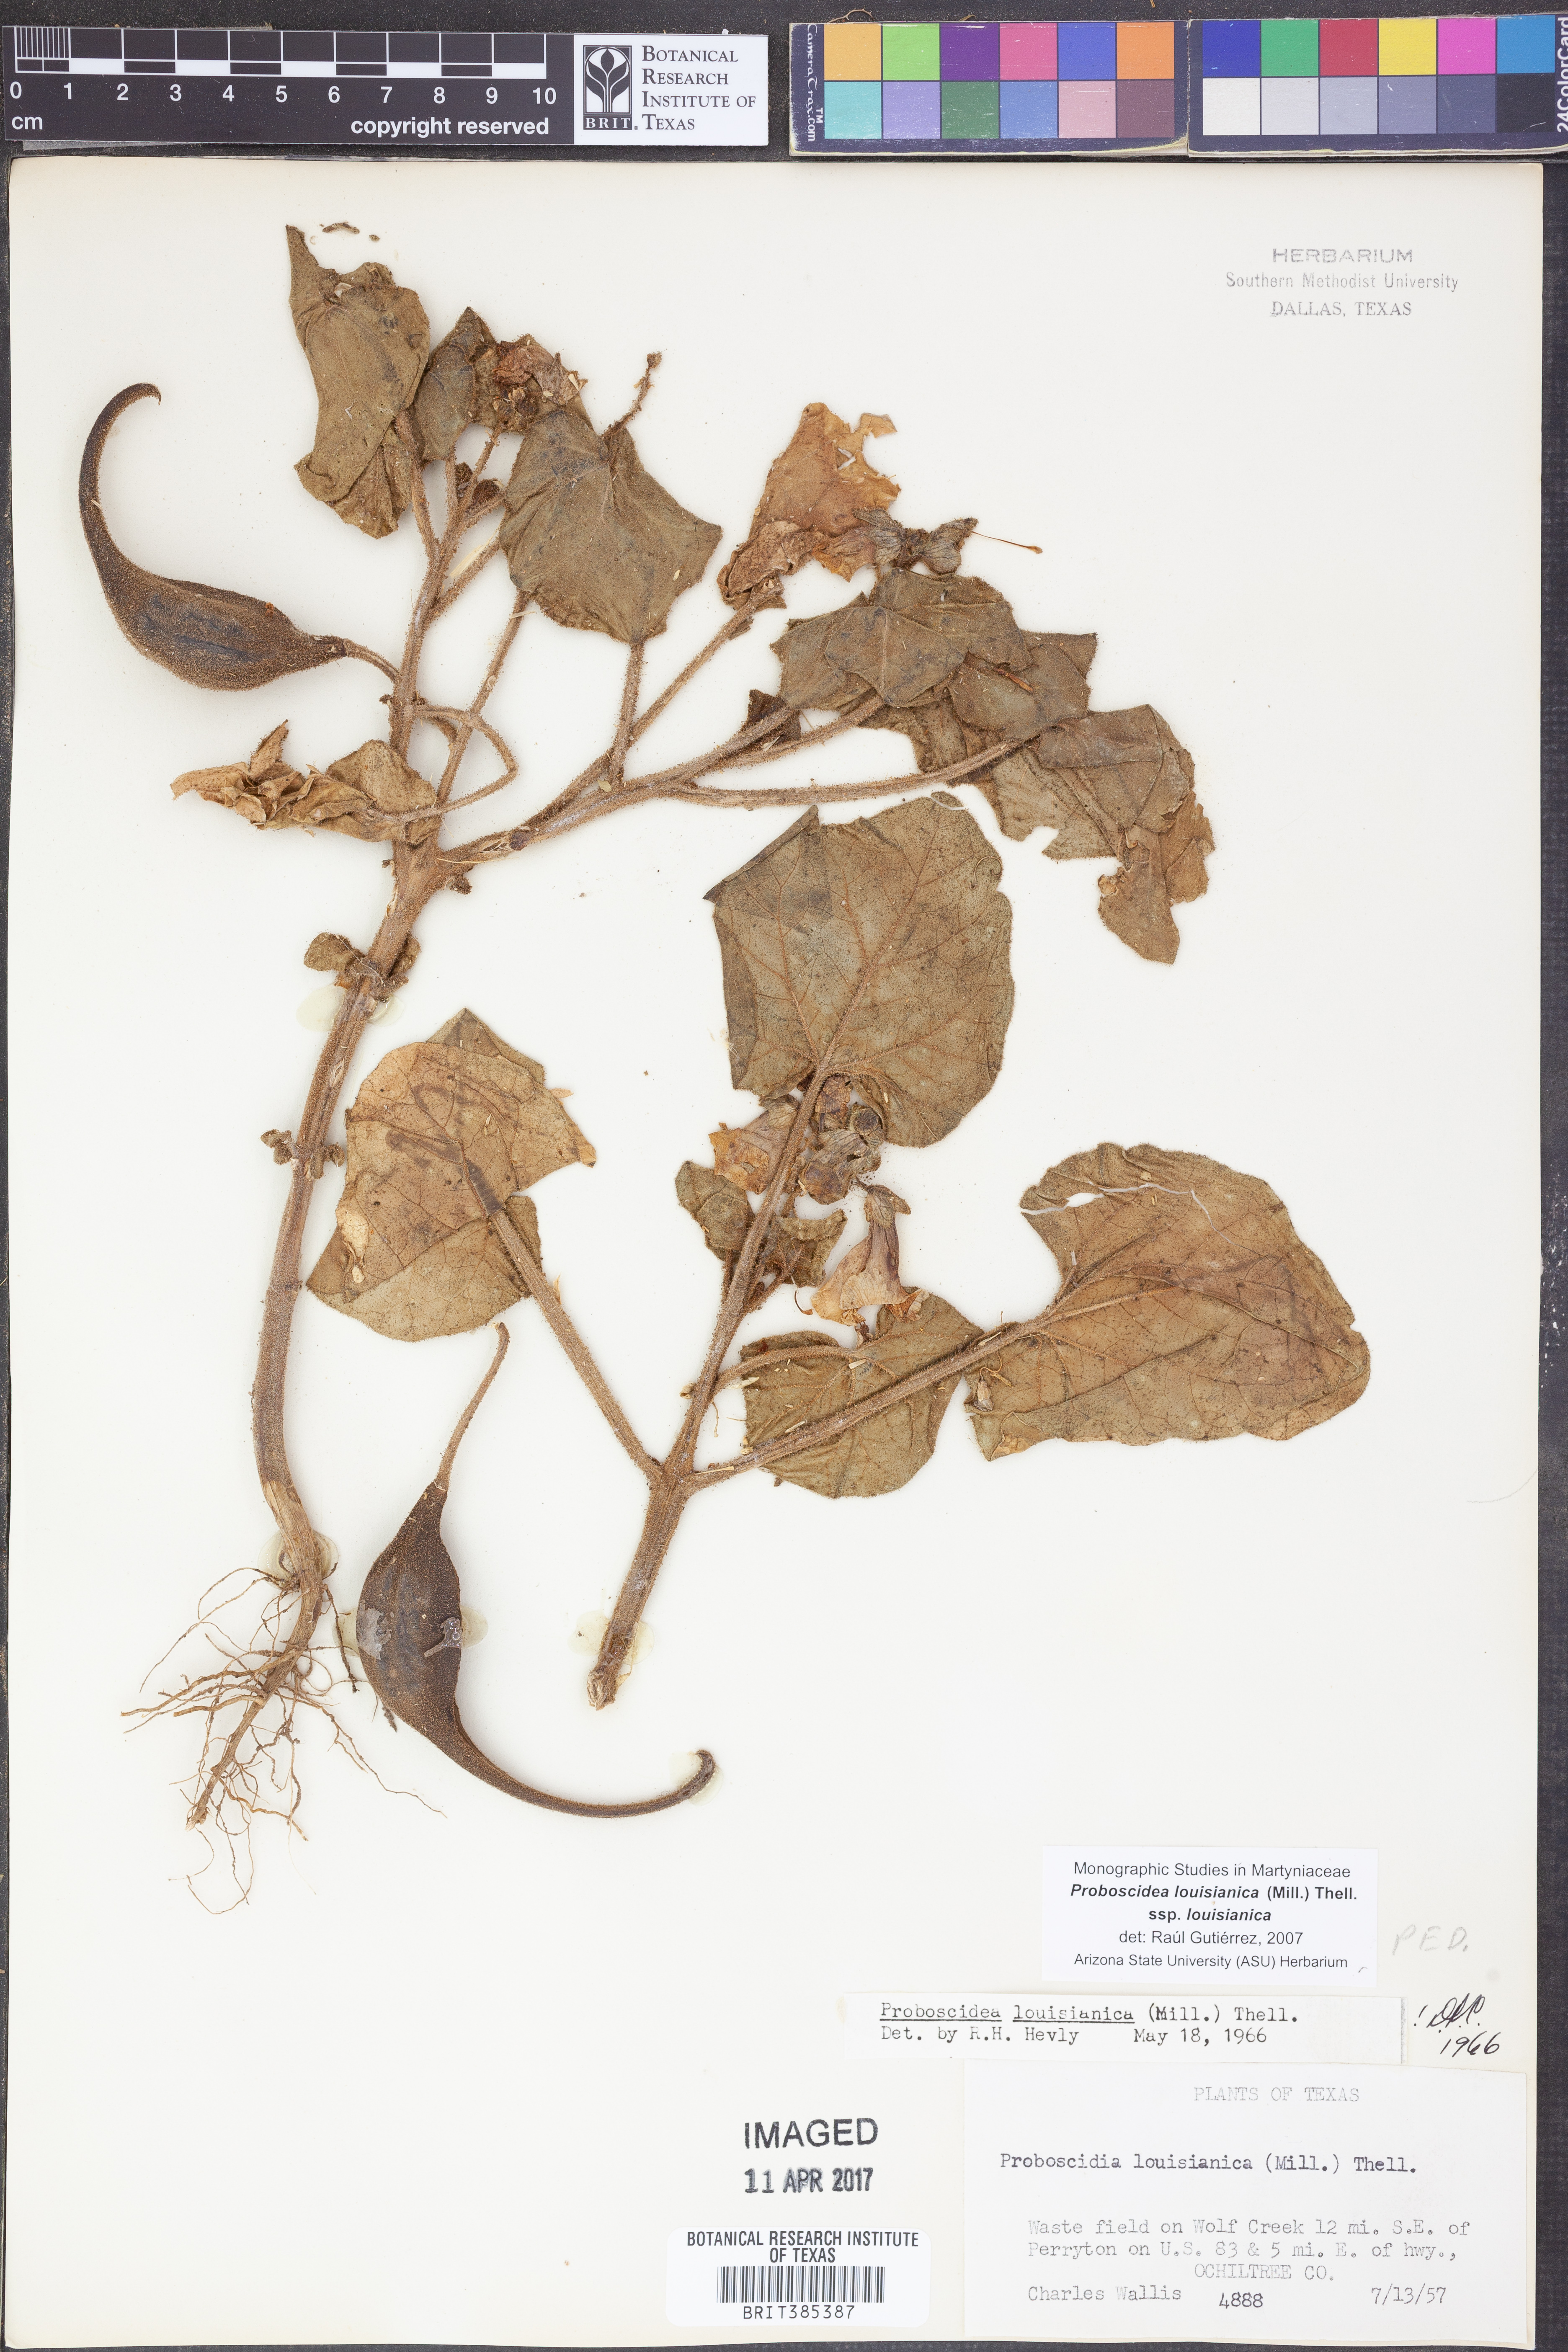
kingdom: Plantae
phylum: Tracheophyta
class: Magnoliopsida
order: Lamiales
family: Martyniaceae
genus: Proboscidea
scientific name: Proboscidea louisianica
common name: Elephant tusks
